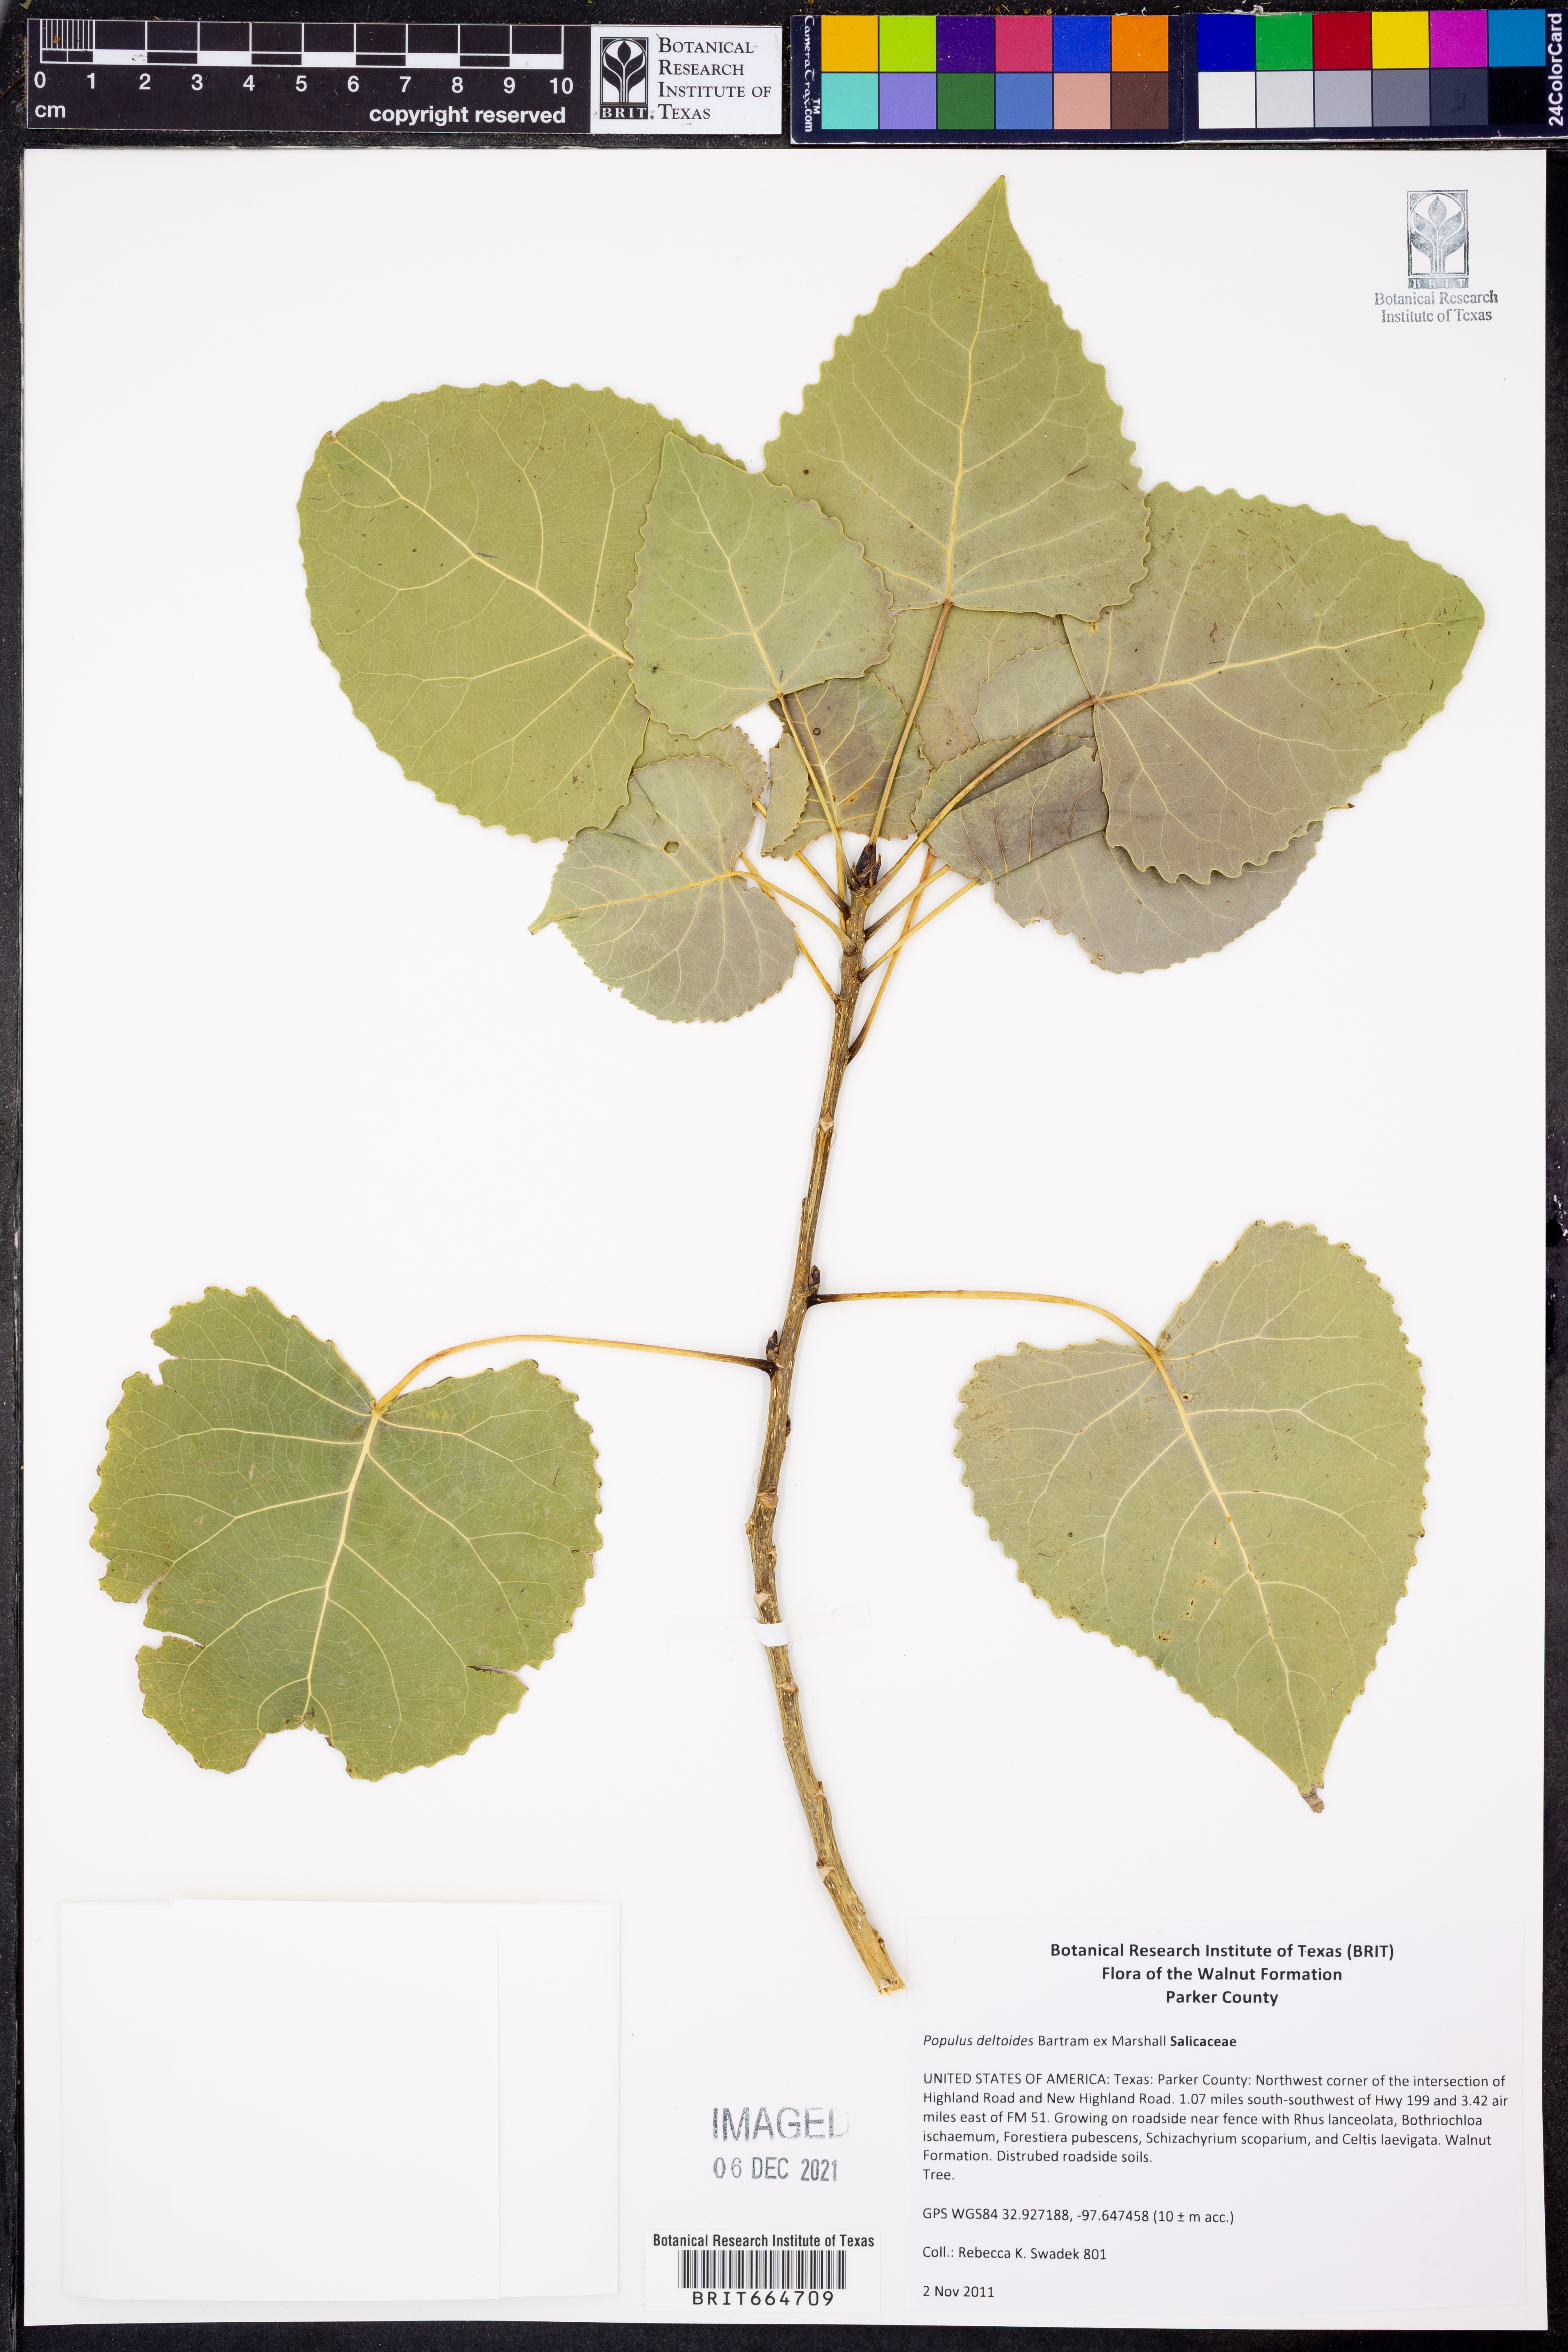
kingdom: Plantae
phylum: Tracheophyta
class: Magnoliopsida
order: Malpighiales
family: Salicaceae
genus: Populus
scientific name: Populus deltoides
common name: Eastern cottonwood
